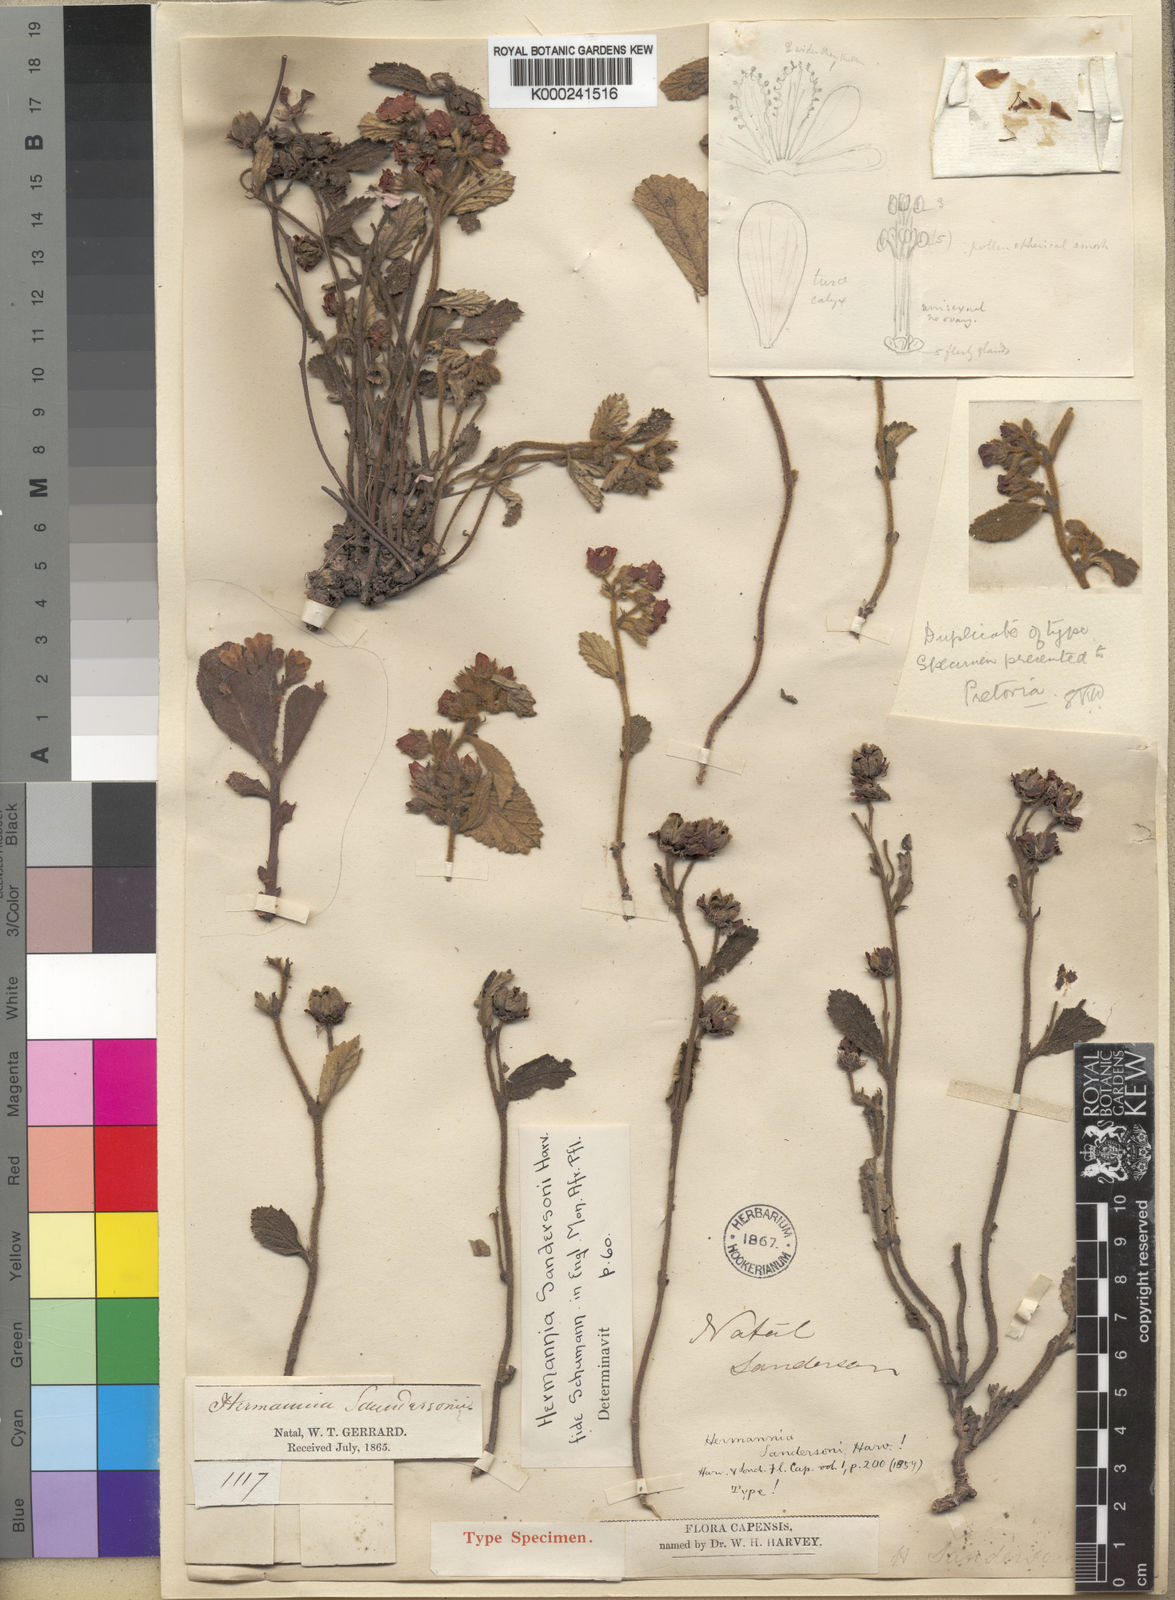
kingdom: Plantae
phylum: Tracheophyta
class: Magnoliopsida
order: Malvales
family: Malvaceae
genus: Hermannia
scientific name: Hermannia sandersonii
